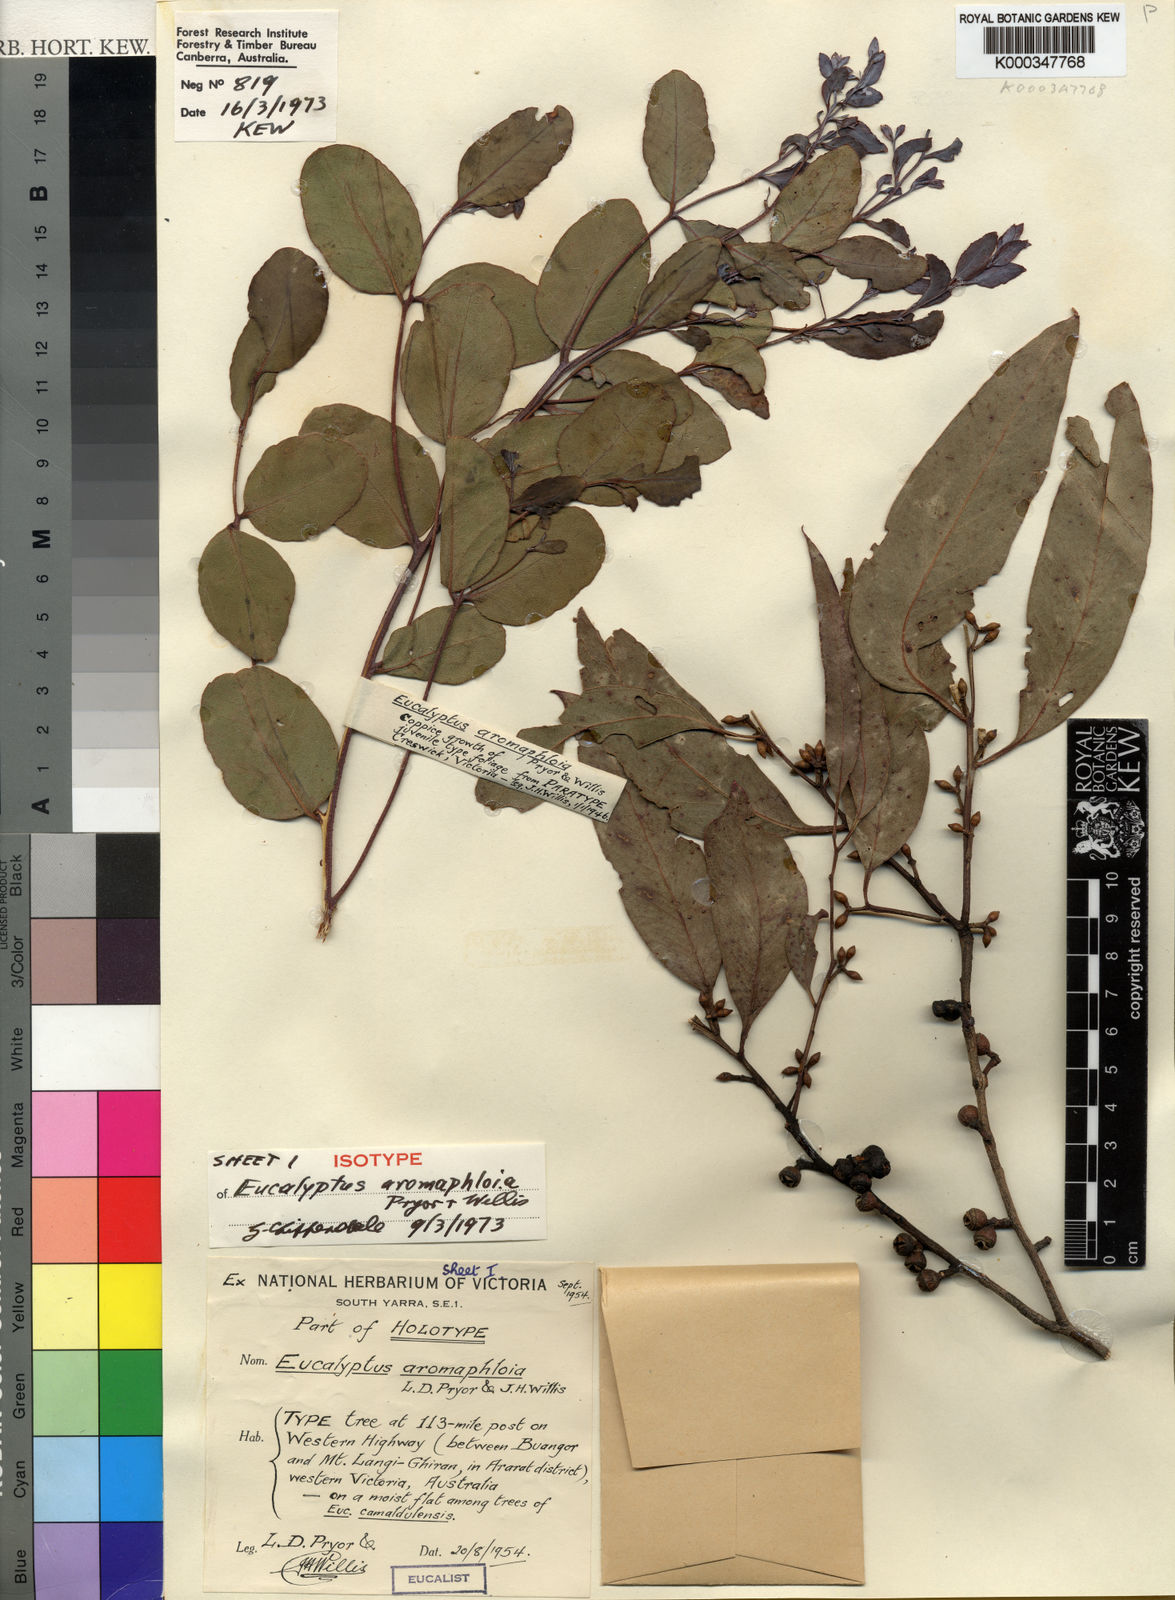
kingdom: Plantae
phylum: Tracheophyta
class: Magnoliopsida
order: Myrtales
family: Myrtaceae
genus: Eucalyptus
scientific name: Eucalyptus aromaphloia
